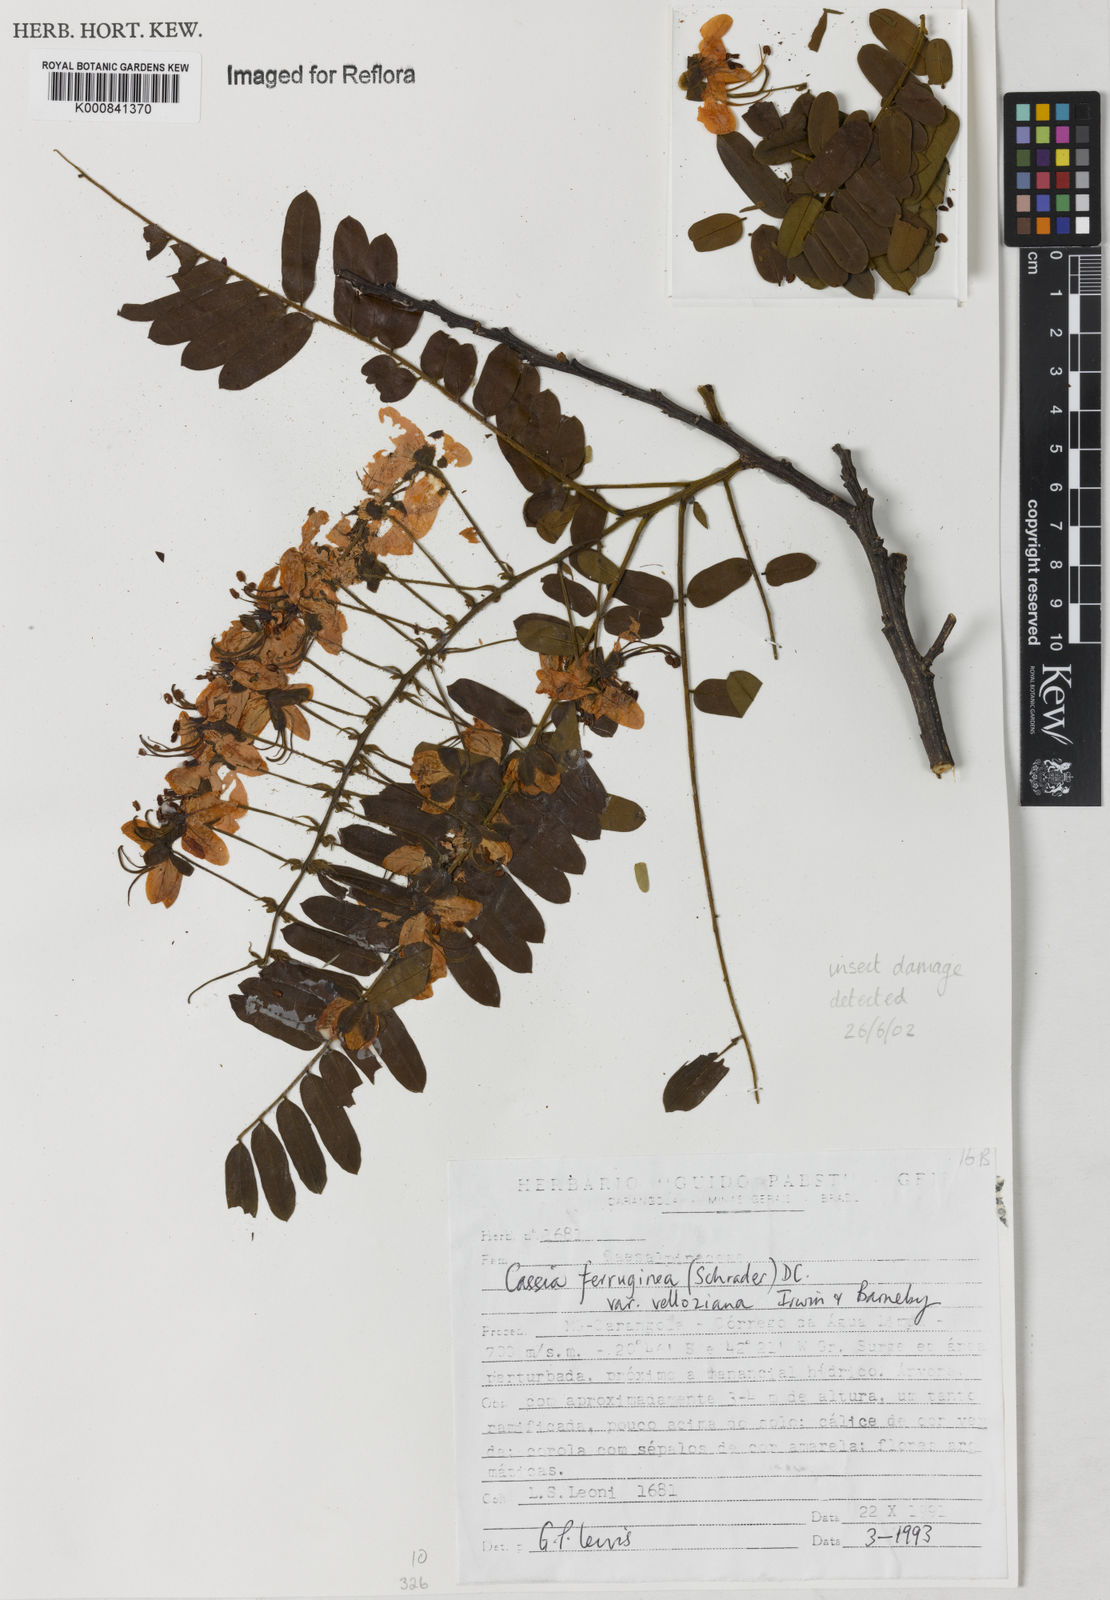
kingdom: Plantae
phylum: Tracheophyta
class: Magnoliopsida
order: Fabales
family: Fabaceae
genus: Cassia
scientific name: Cassia ferruginea
